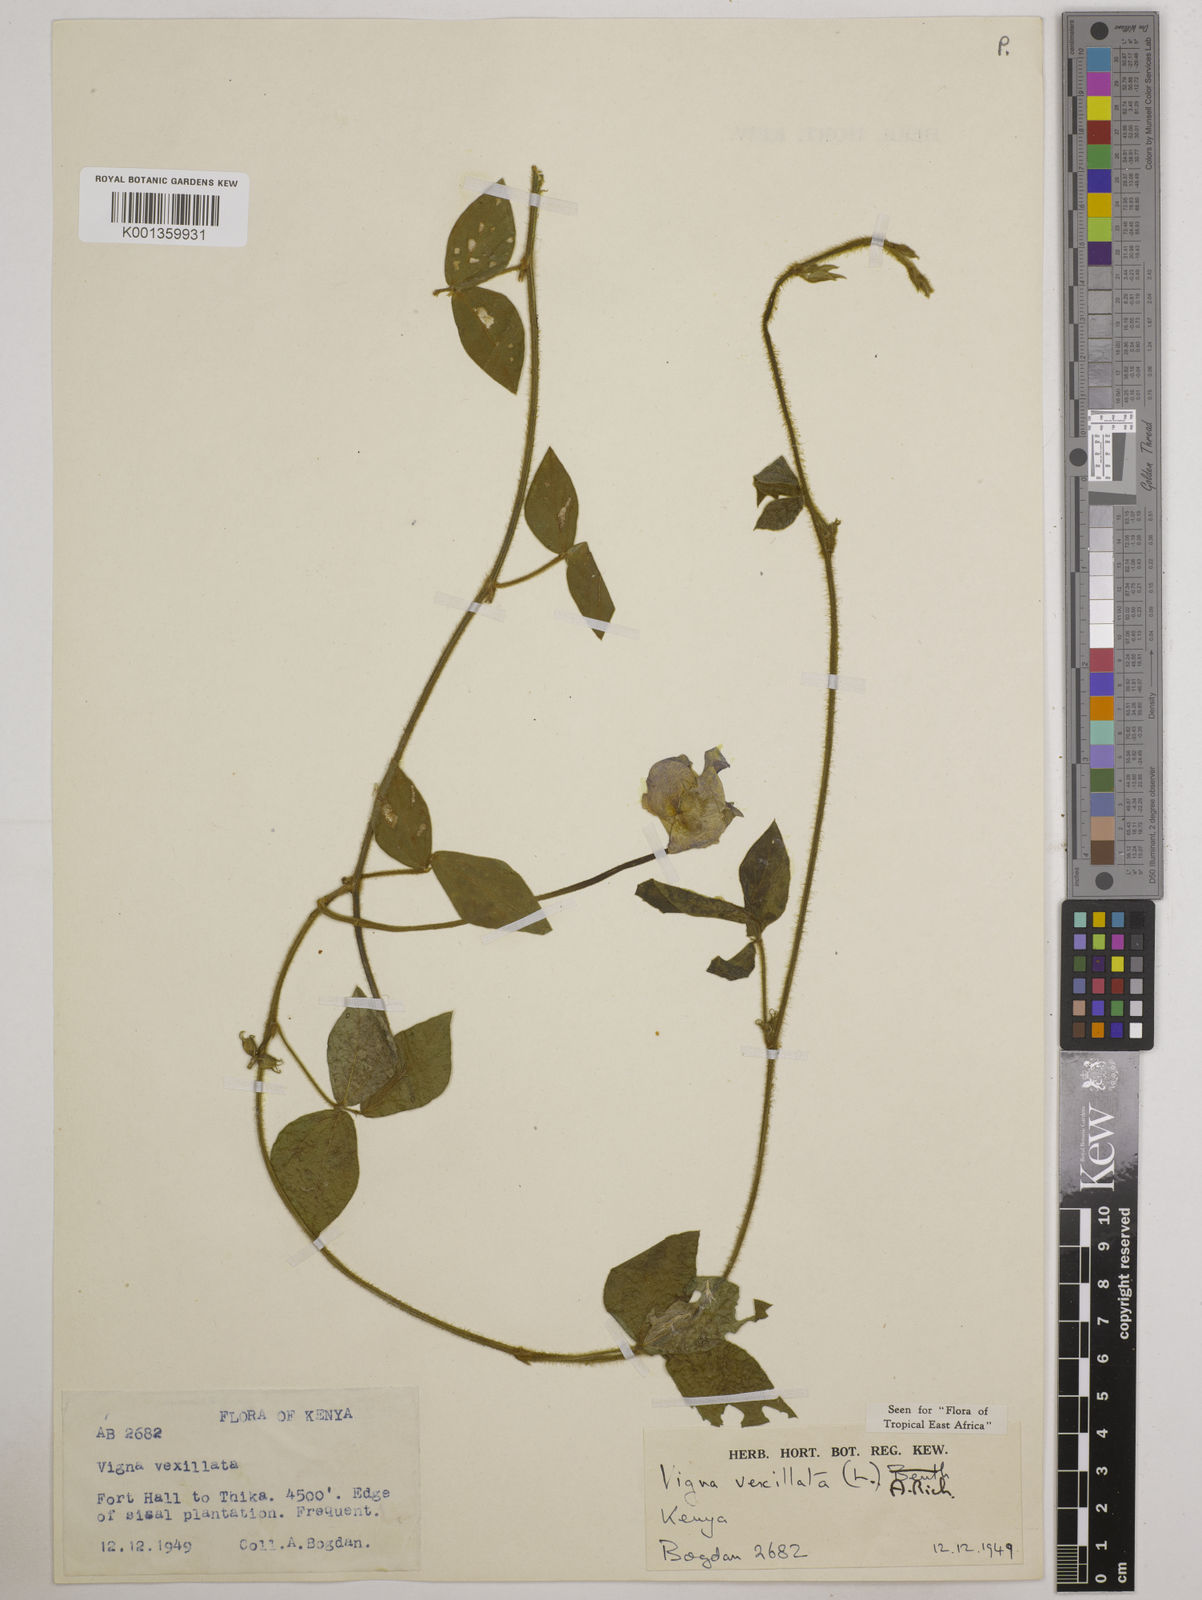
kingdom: Plantae
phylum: Tracheophyta
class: Magnoliopsida
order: Fabales
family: Fabaceae
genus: Vigna
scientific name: Vigna vexillata
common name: Zombi pea
